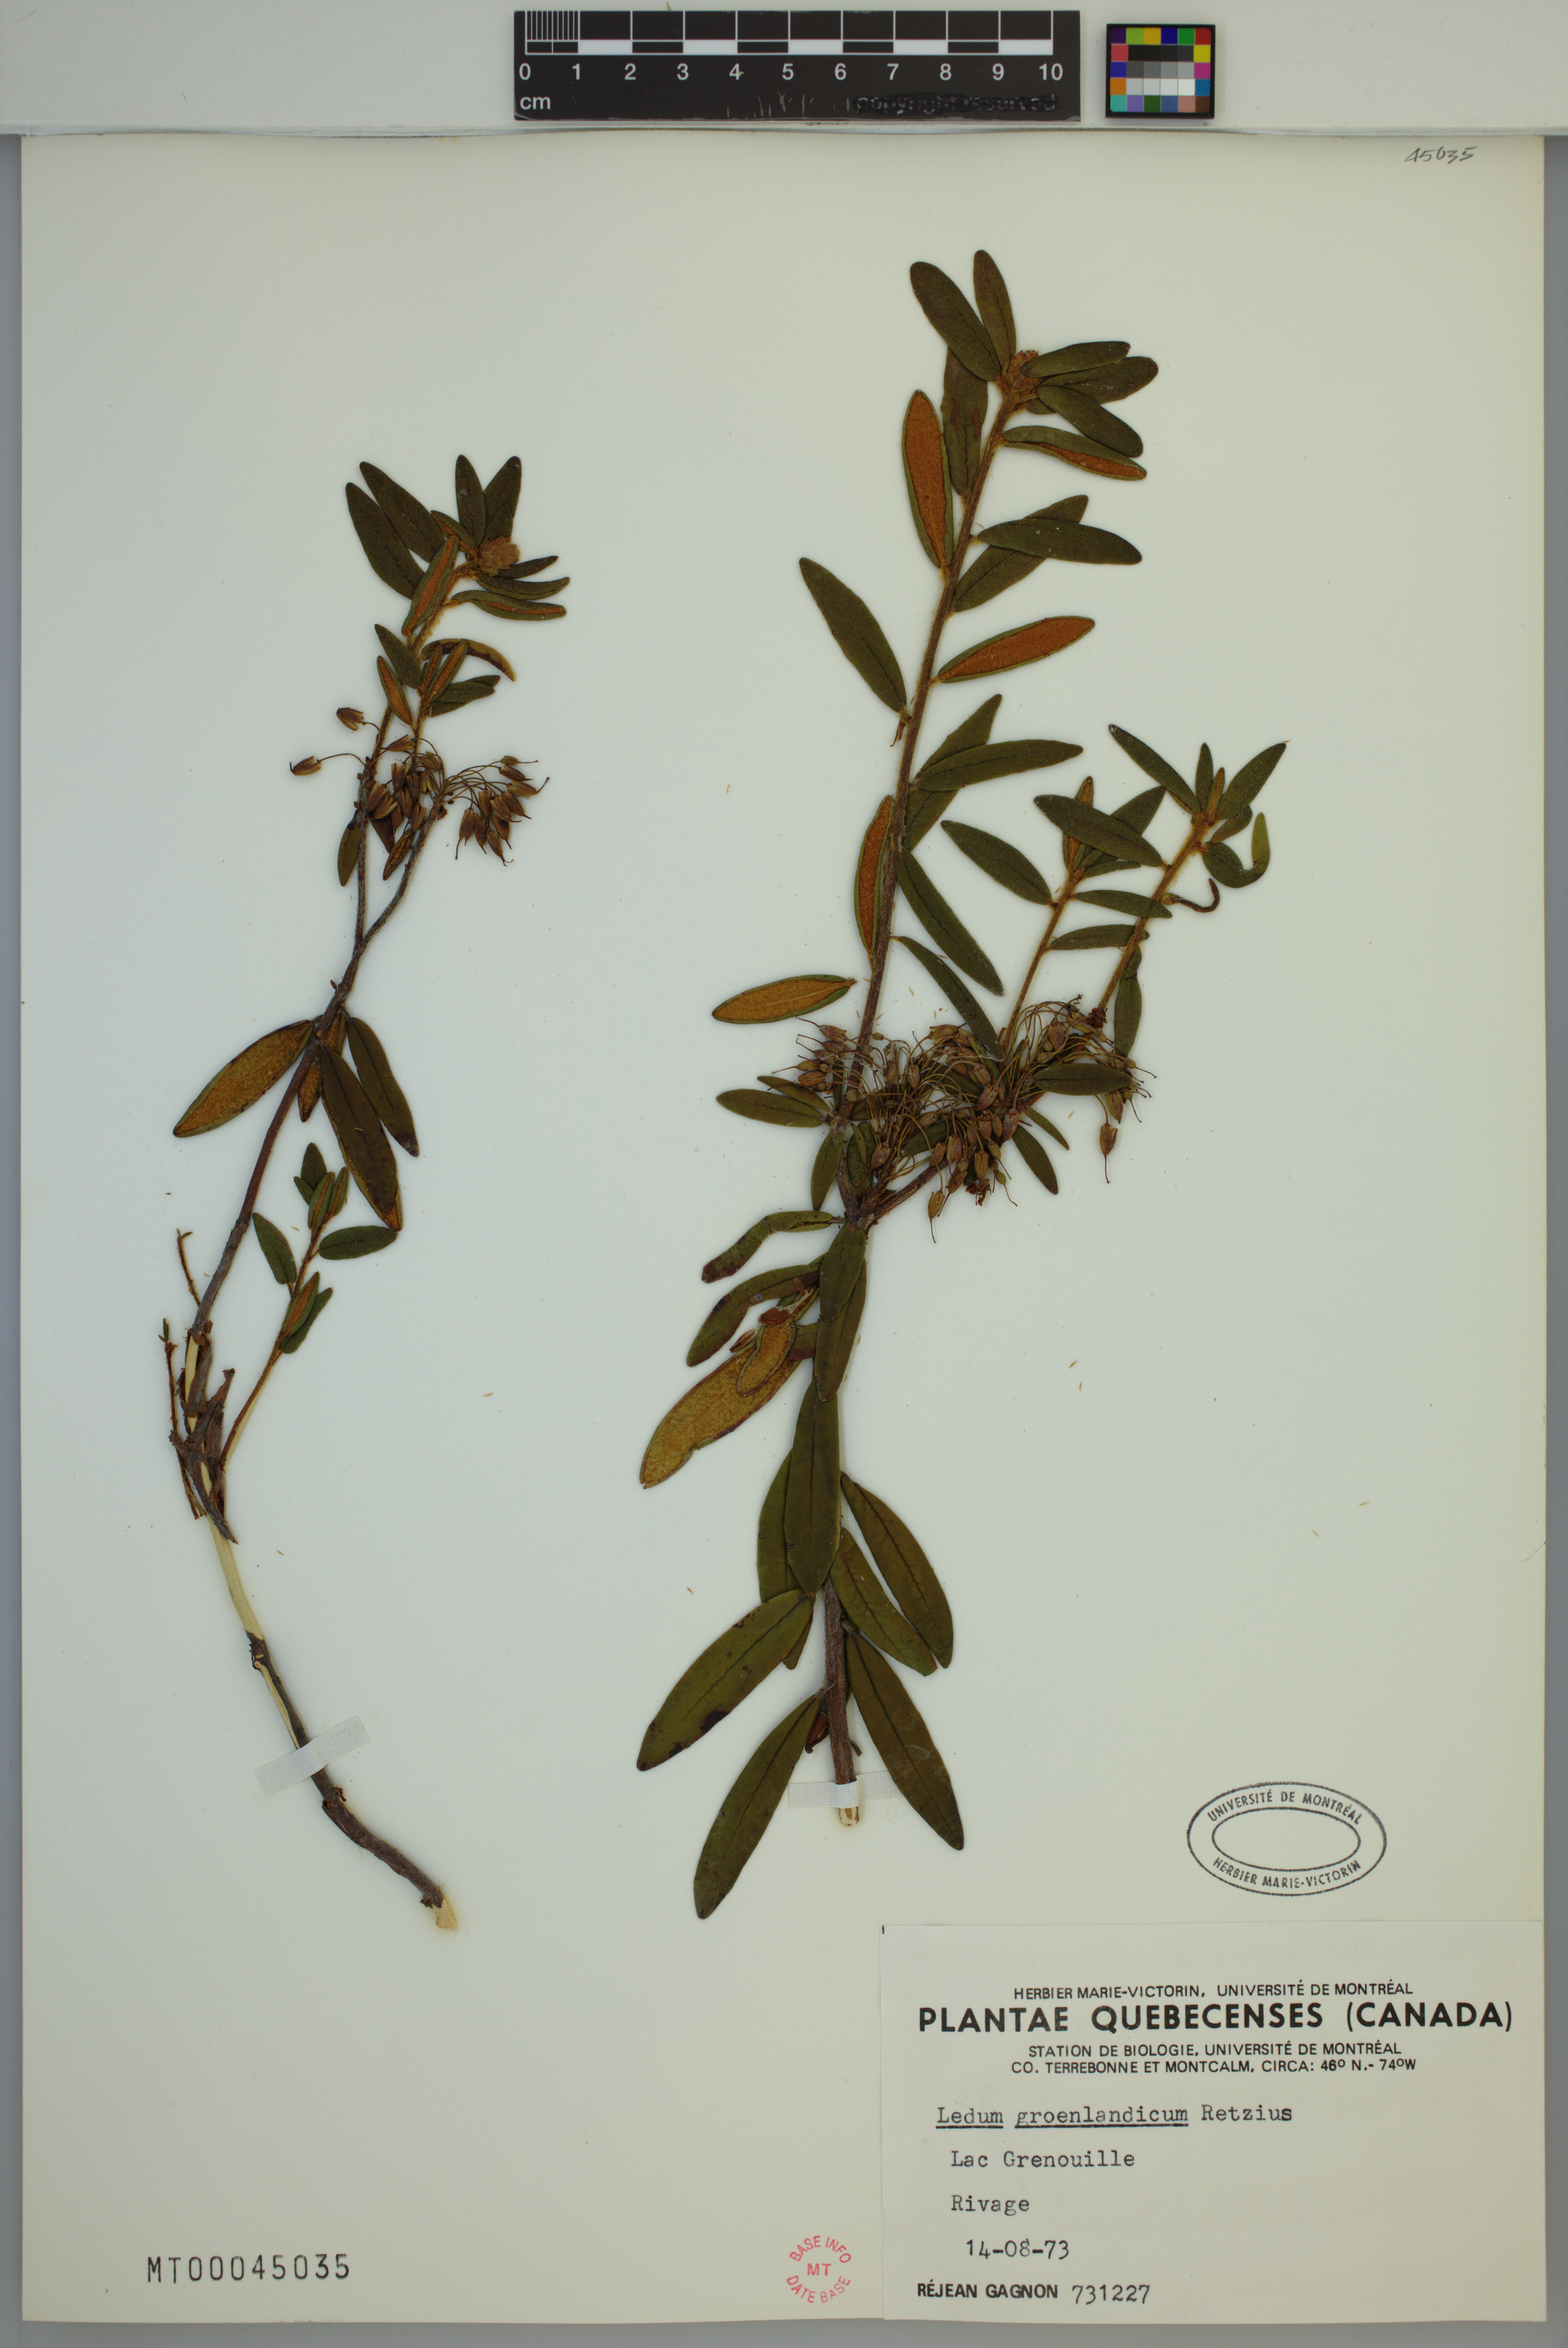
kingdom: Plantae
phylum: Tracheophyta
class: Magnoliopsida
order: Ericales
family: Ericaceae
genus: Rhododendron
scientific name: Rhododendron groenlandicum
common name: Bog labrador tea
